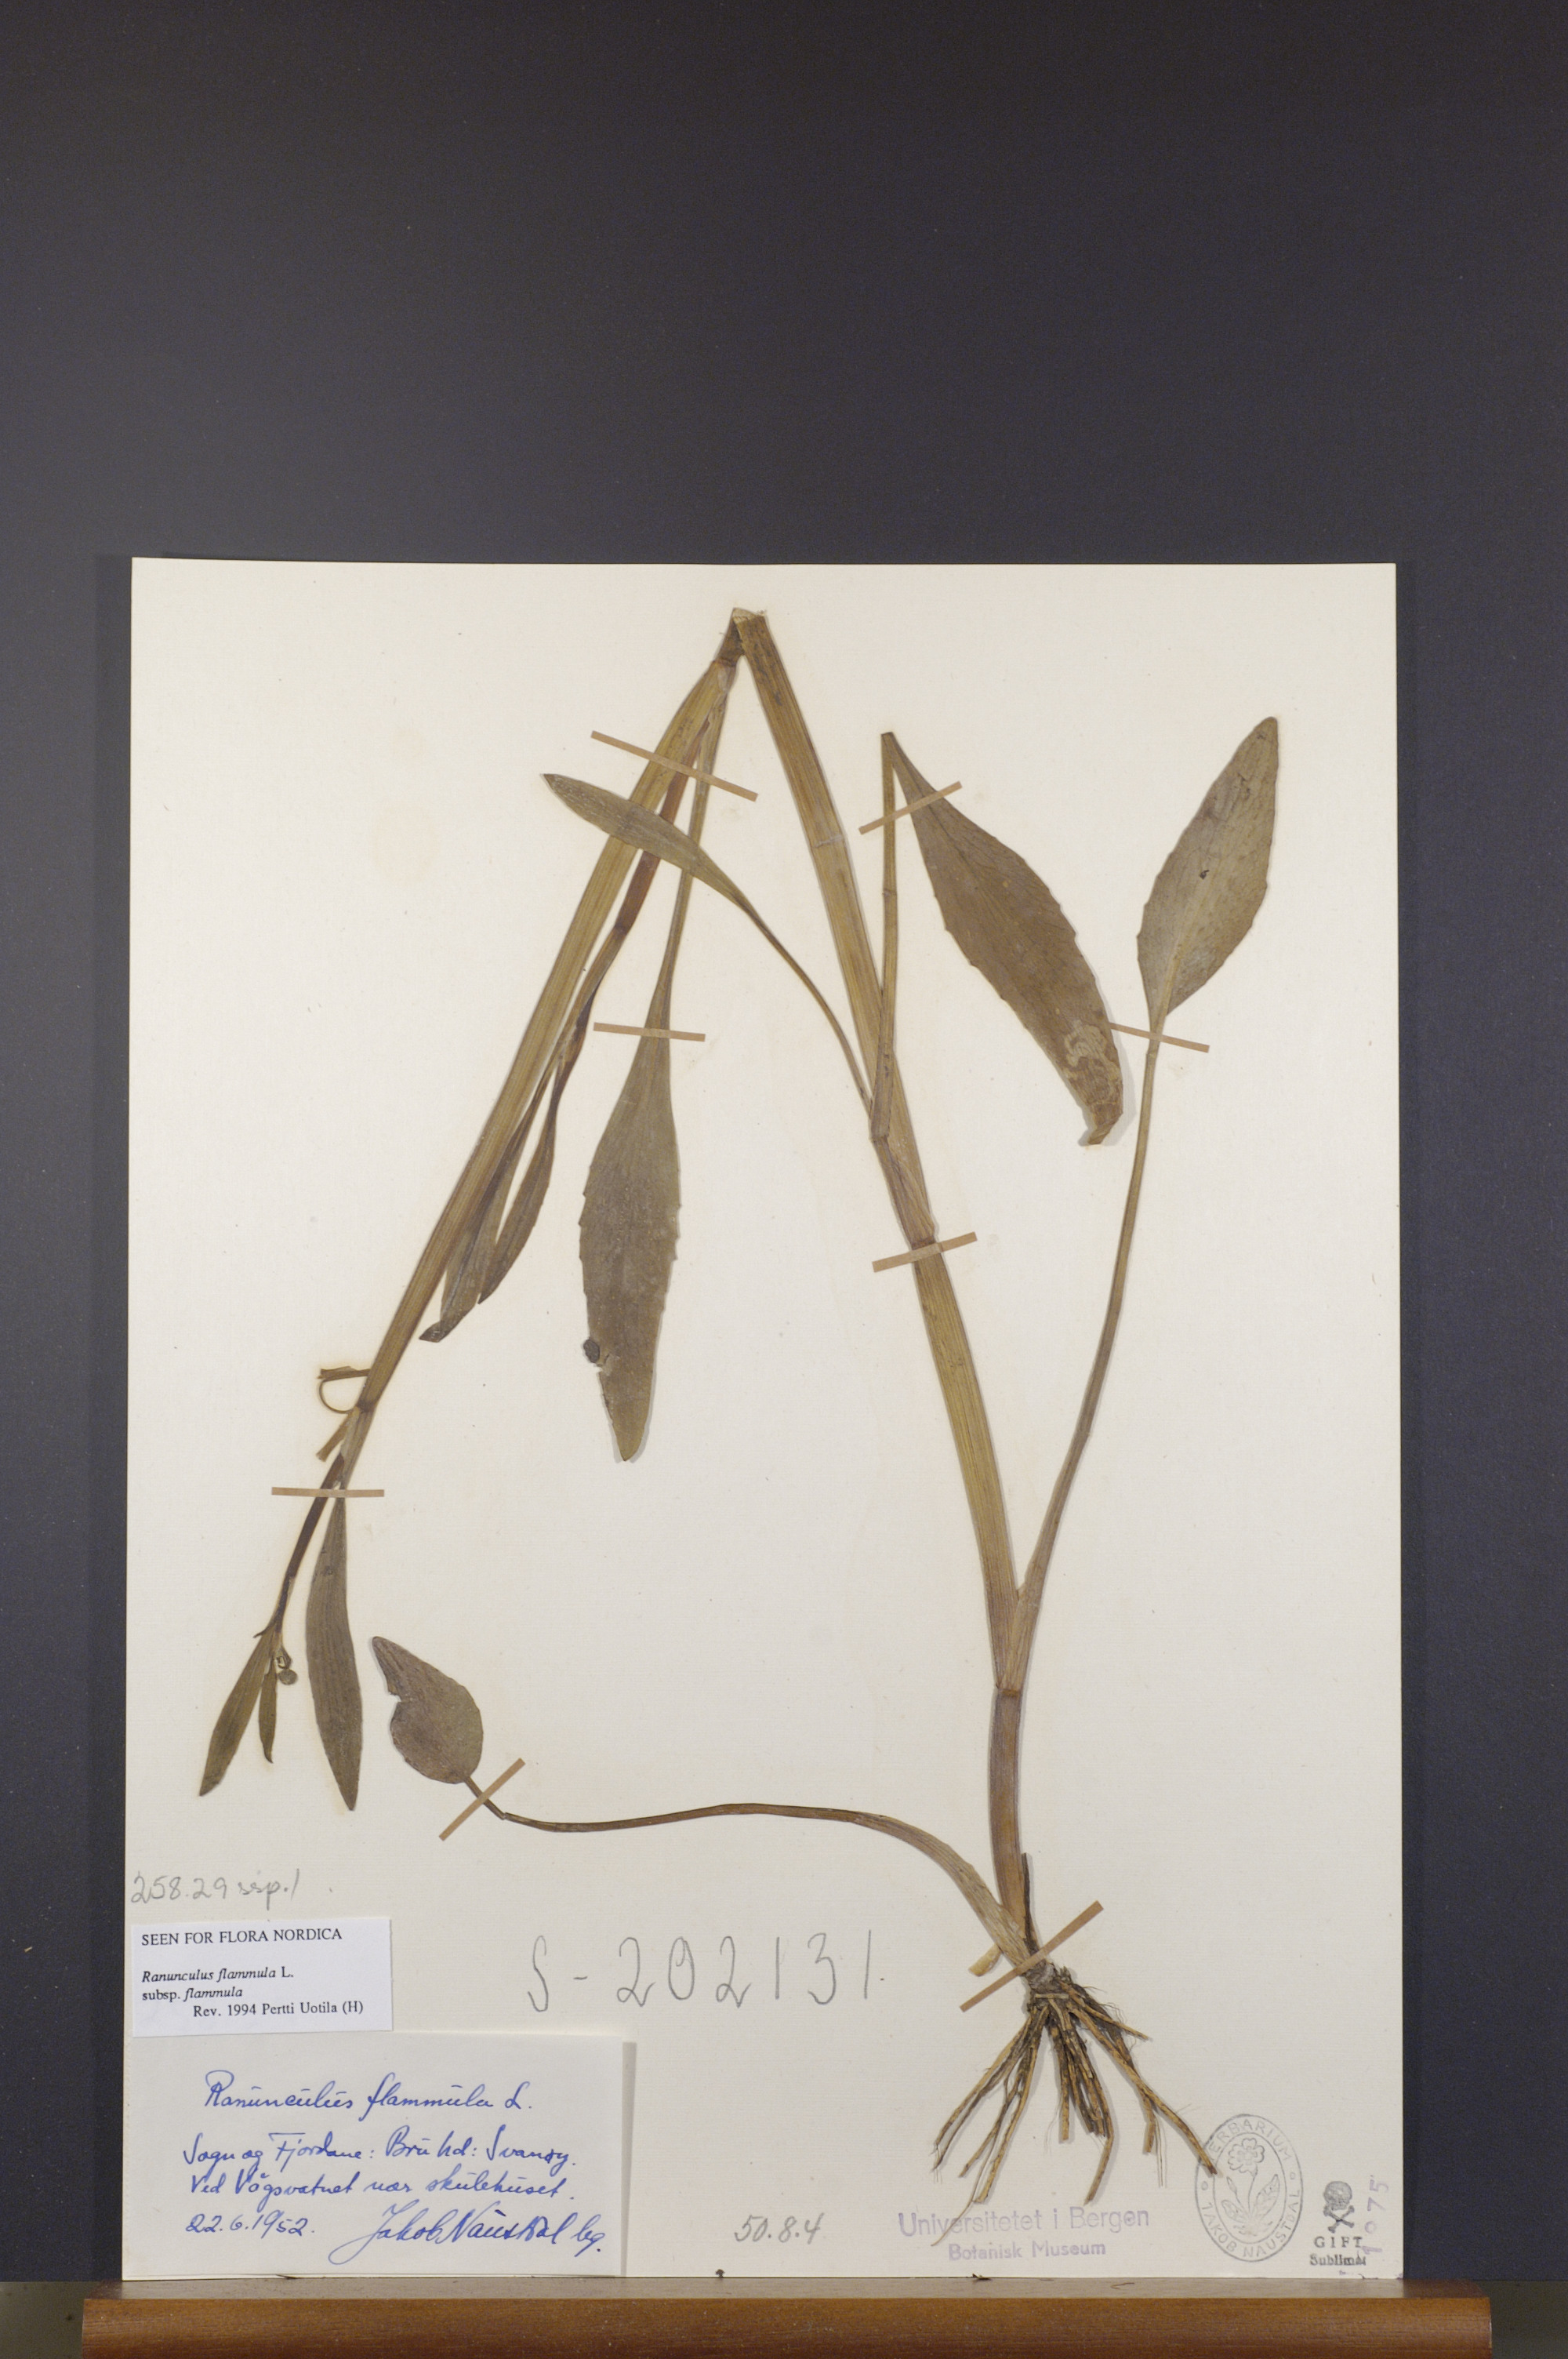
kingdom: Plantae
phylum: Tracheophyta
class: Magnoliopsida
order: Ranunculales
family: Ranunculaceae
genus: Ranunculus
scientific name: Ranunculus flammula
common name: Lesser spearwort
